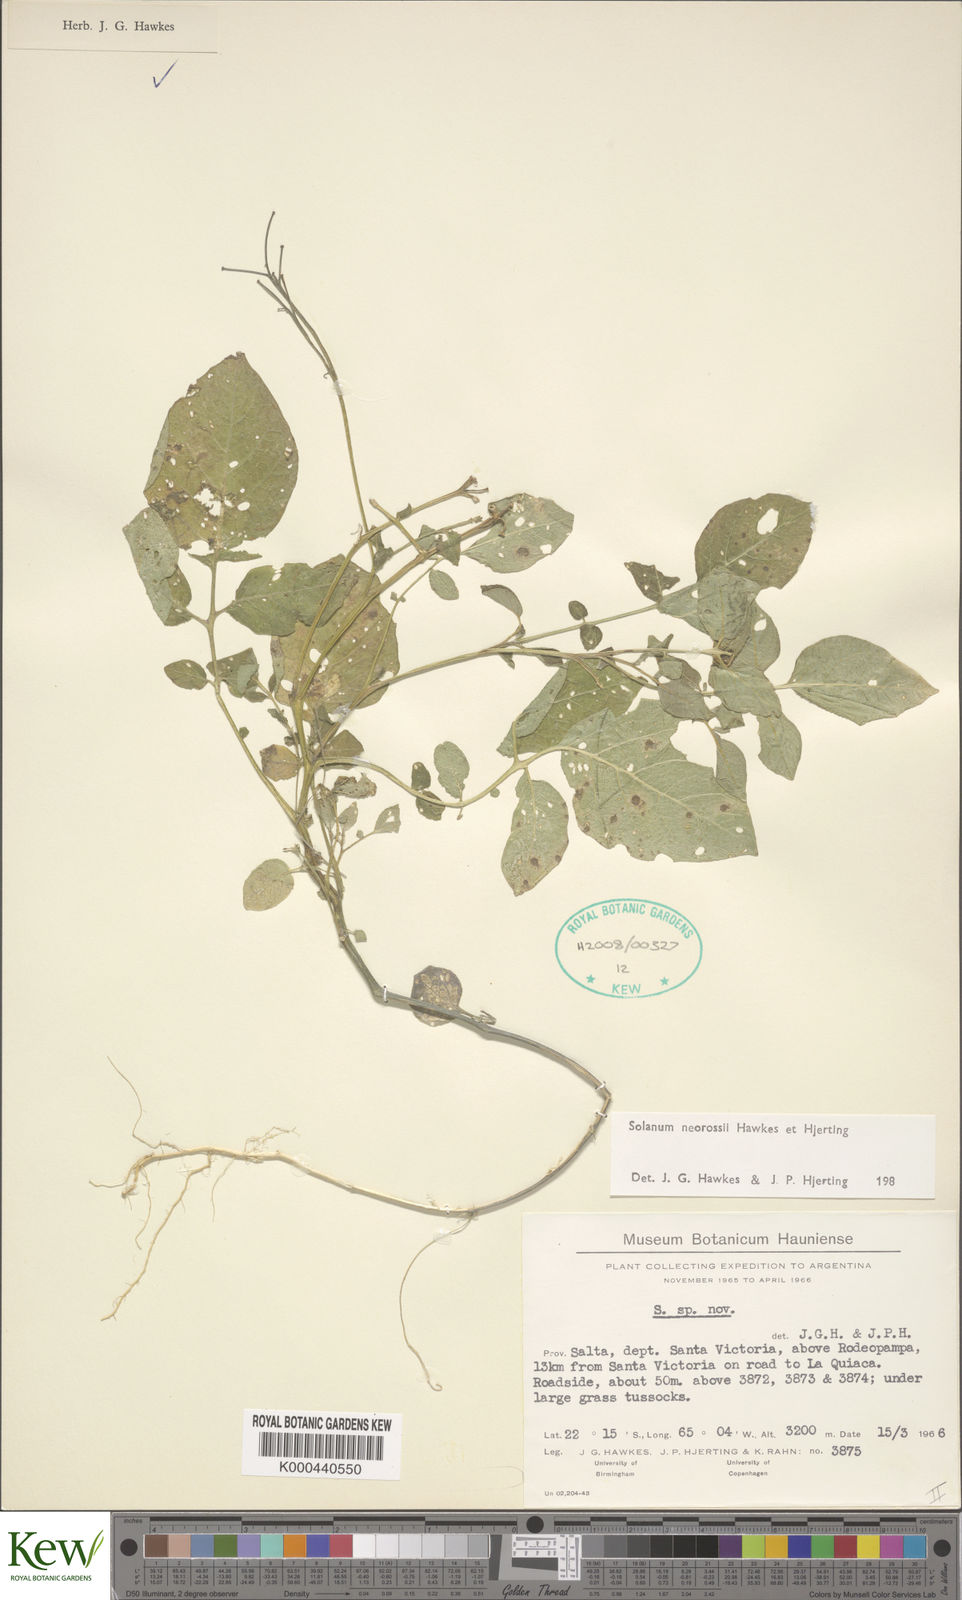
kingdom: Plantae
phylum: Tracheophyta
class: Magnoliopsida
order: Solanales
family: Solanaceae
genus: Solanum
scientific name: Solanum neorossii
